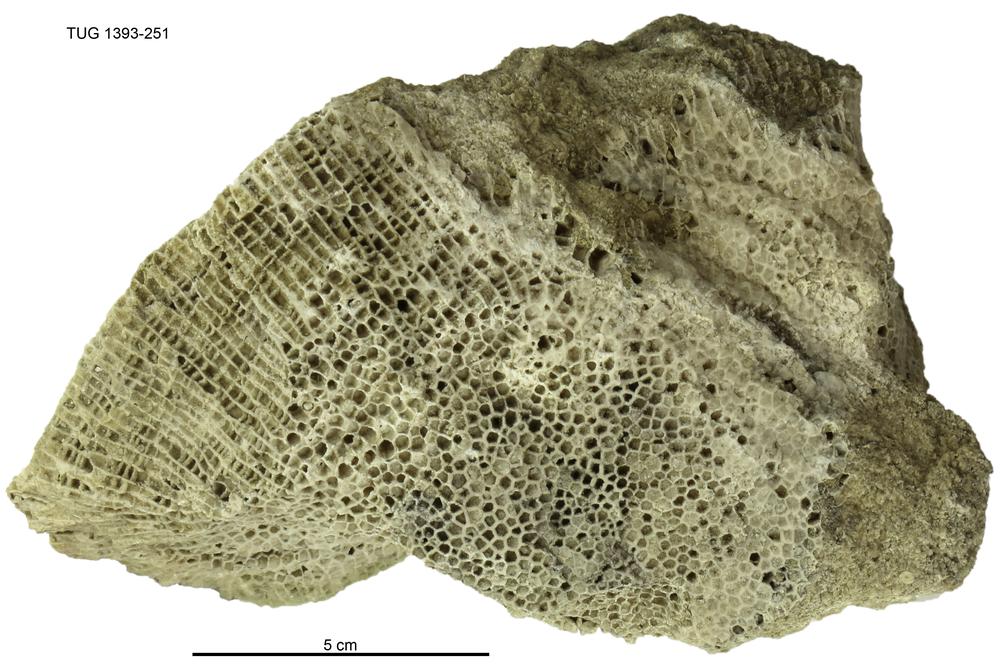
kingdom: Animalia
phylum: Cnidaria
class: Anthozoa
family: Favositidae
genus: Saffordophyllum
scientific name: Saffordophyllum
